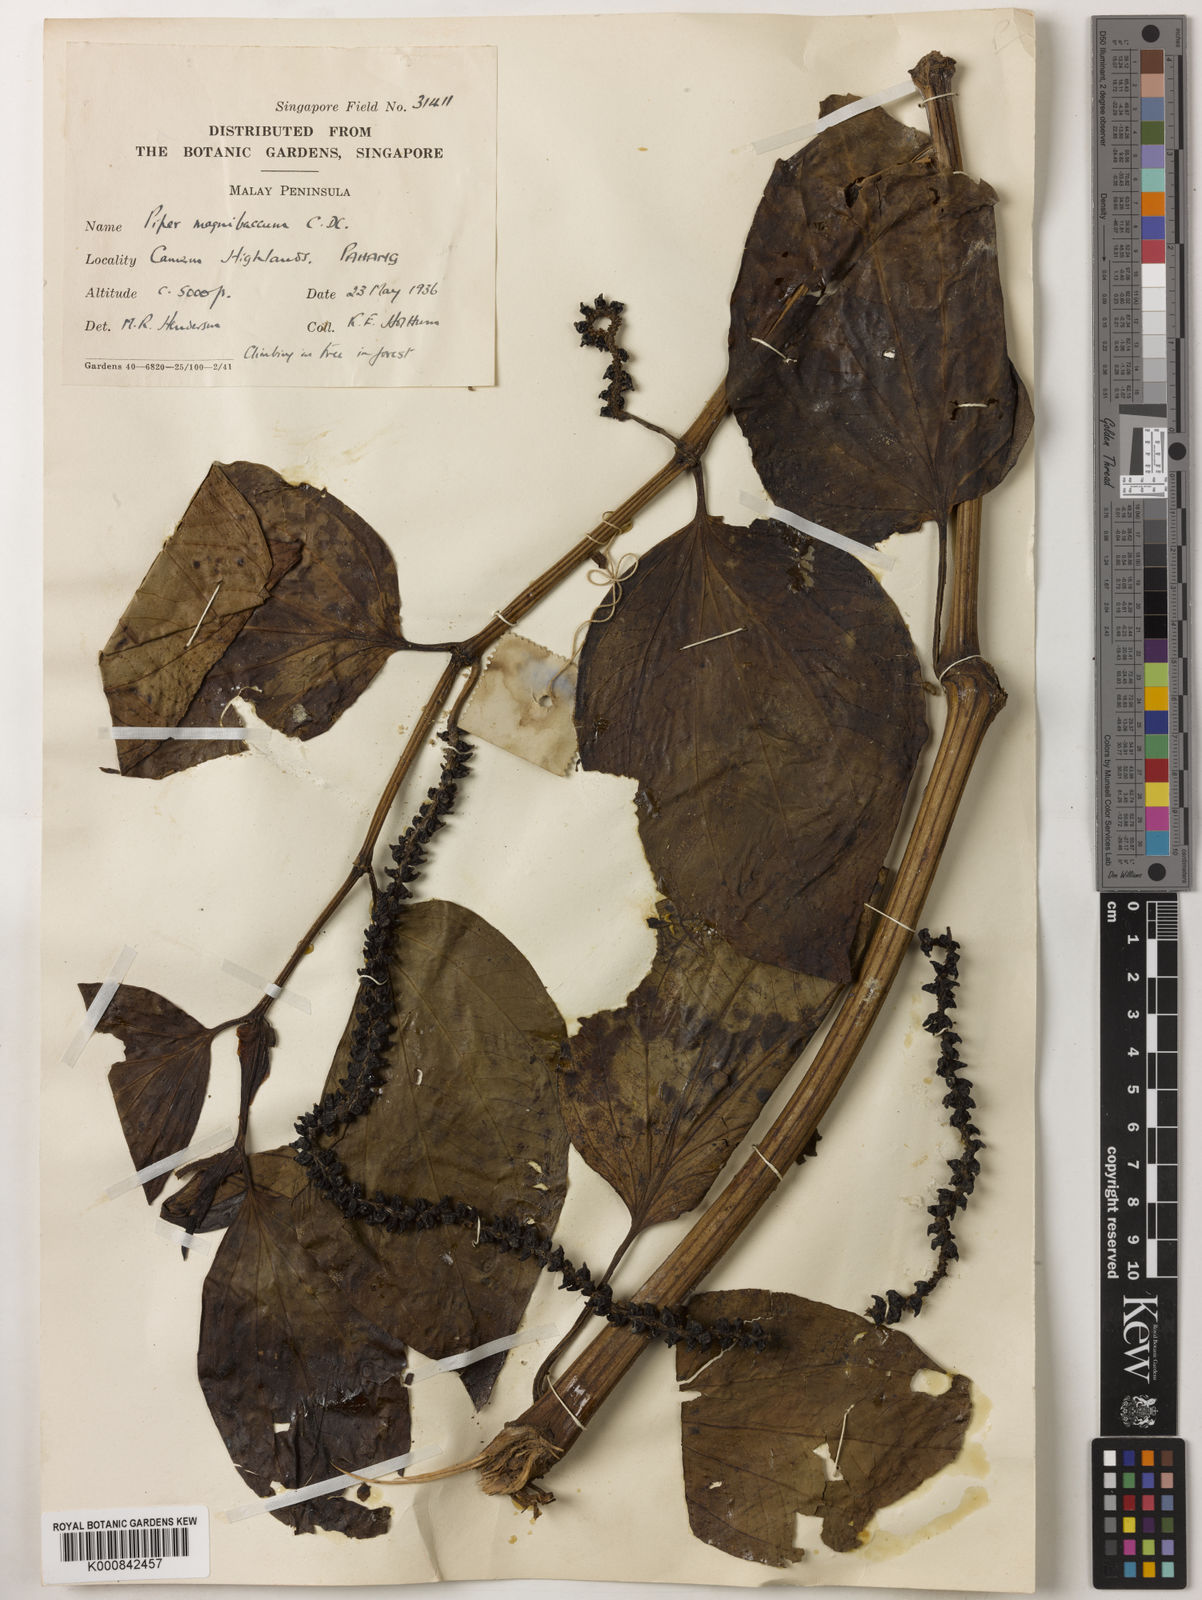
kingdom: Plantae
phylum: Tracheophyta
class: Magnoliopsida
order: Piperales
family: Piperaceae
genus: Piper
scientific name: Piper quinqueangulatum
